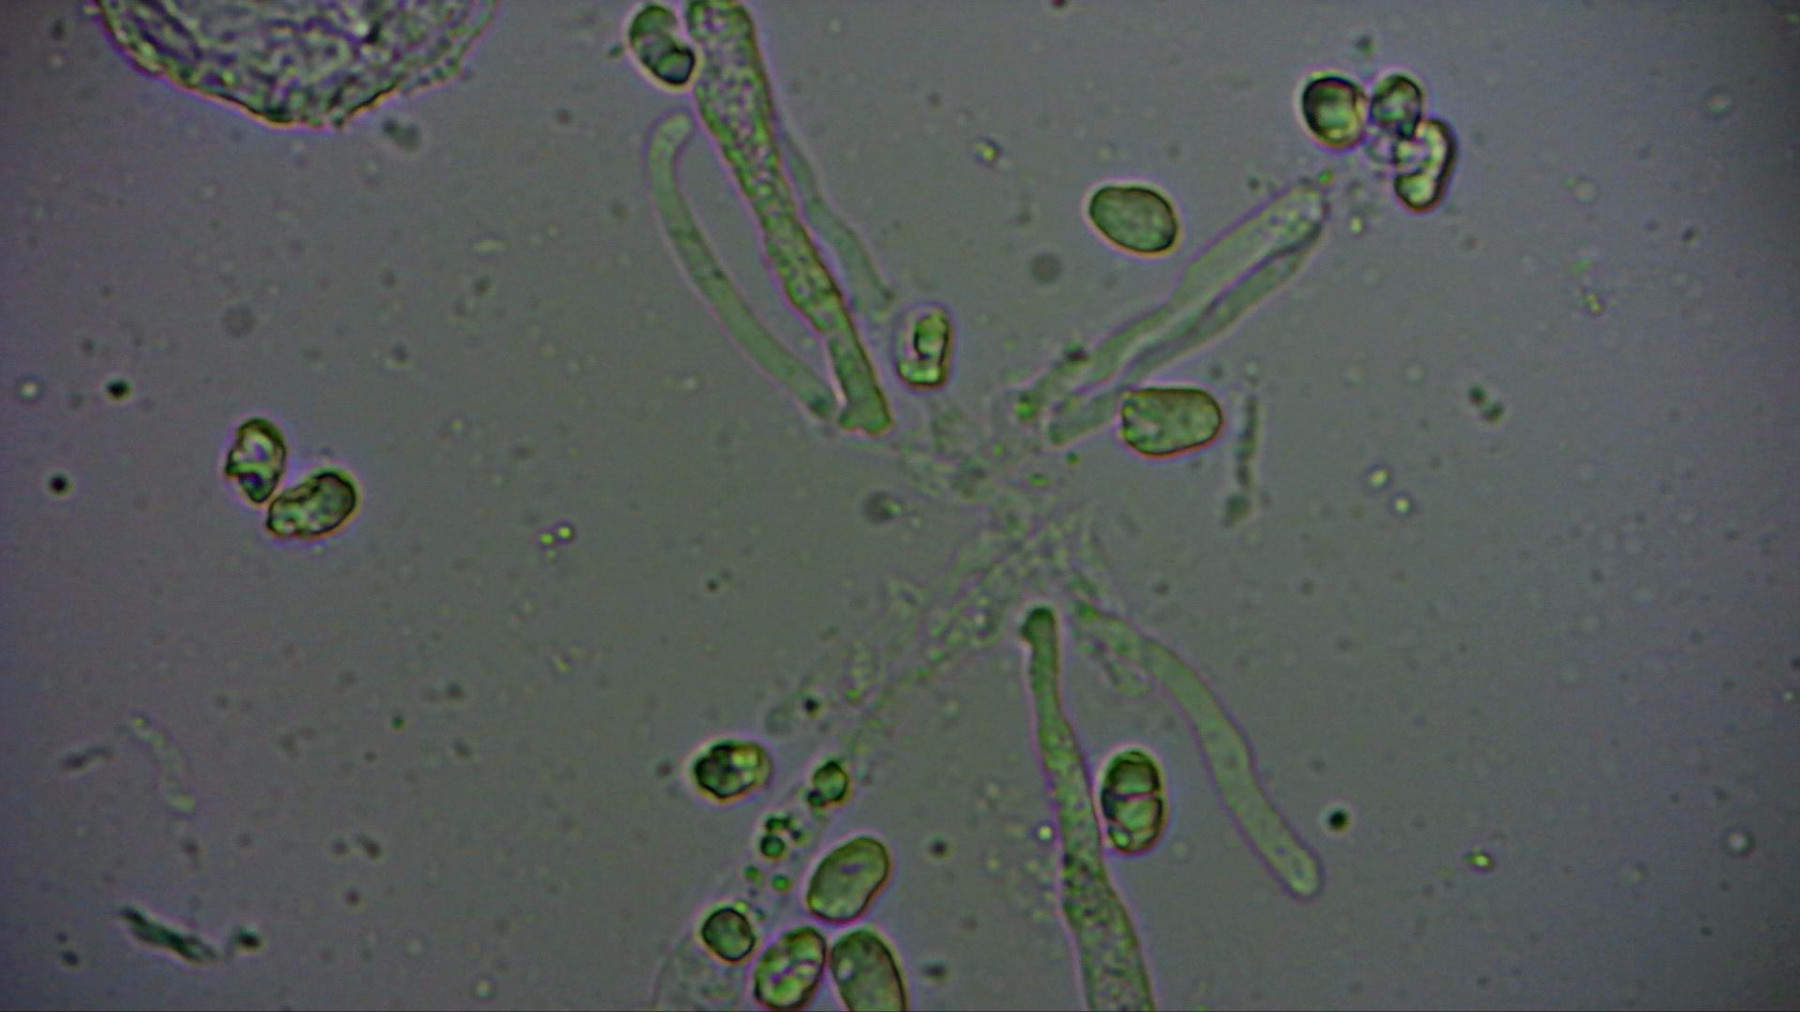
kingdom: Fungi
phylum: Basidiomycota
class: Agaricomycetes
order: Agaricales
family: Hygrophoraceae
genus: Hygrocybe
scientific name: Hygrocybe miniata
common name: mønje-vokshat
